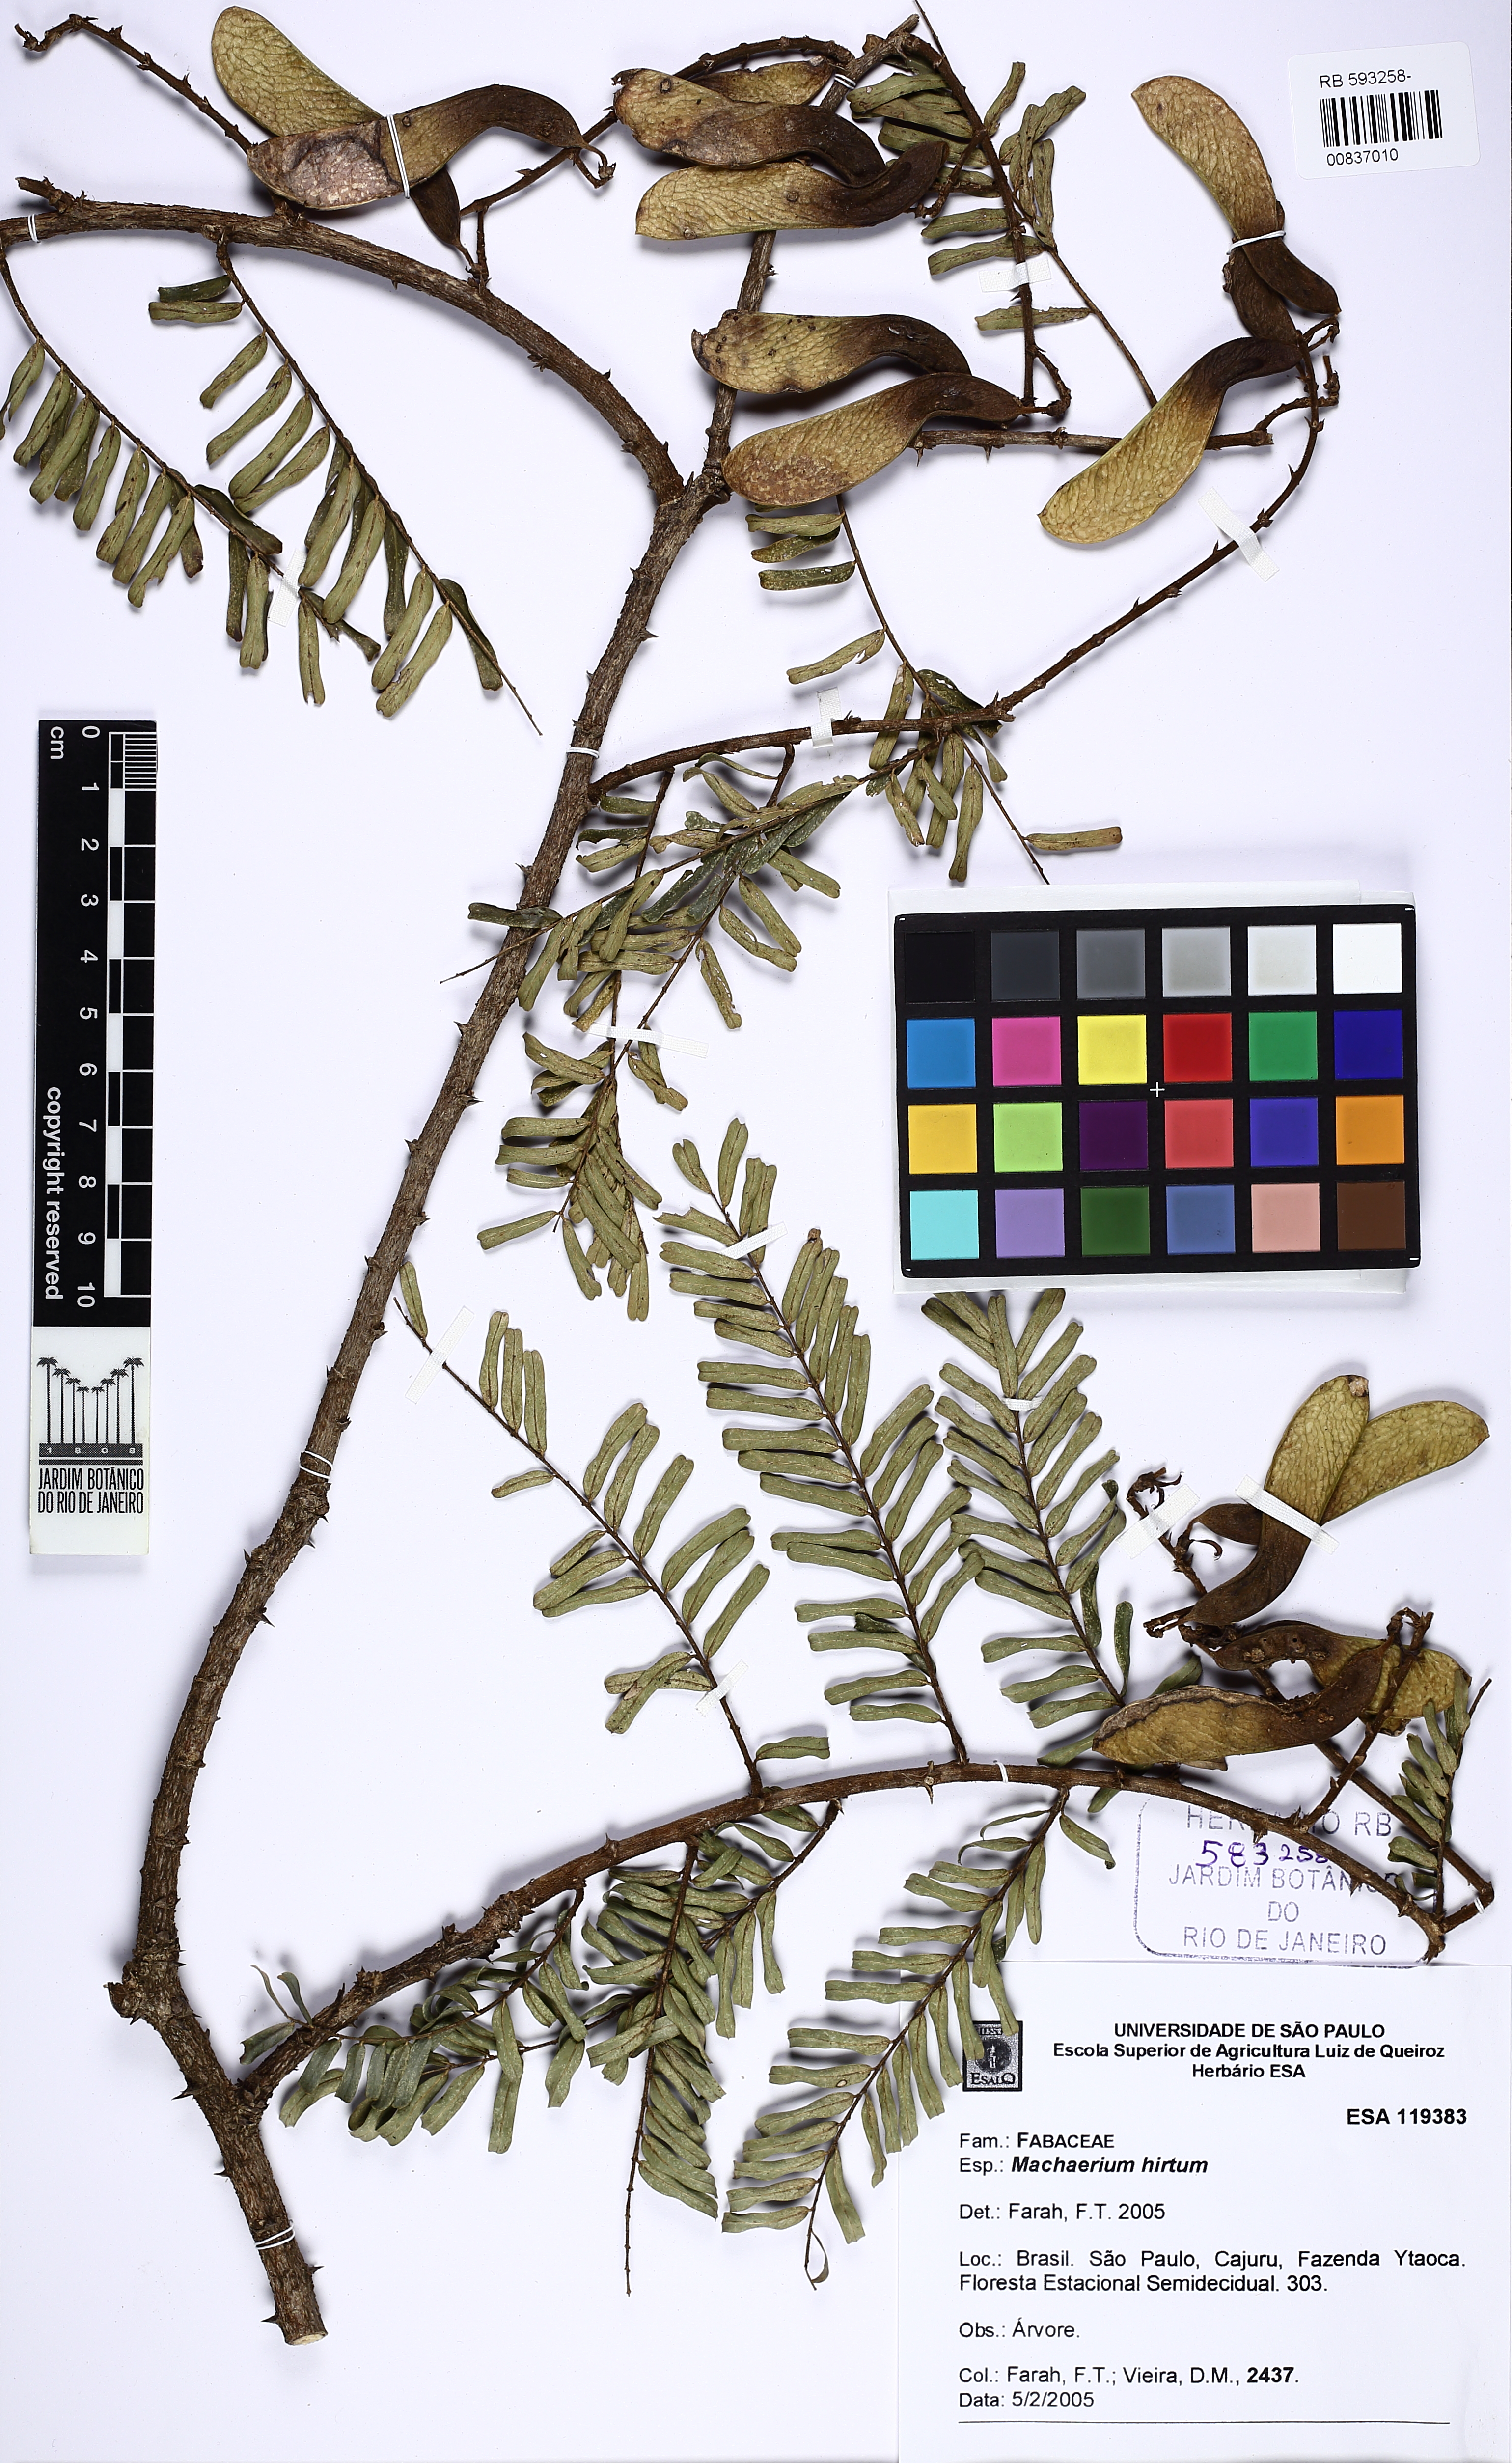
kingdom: Plantae
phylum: Tracheophyta
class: Magnoliopsida
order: Fabales
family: Fabaceae
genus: Machaerium
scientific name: Machaerium hirtum
